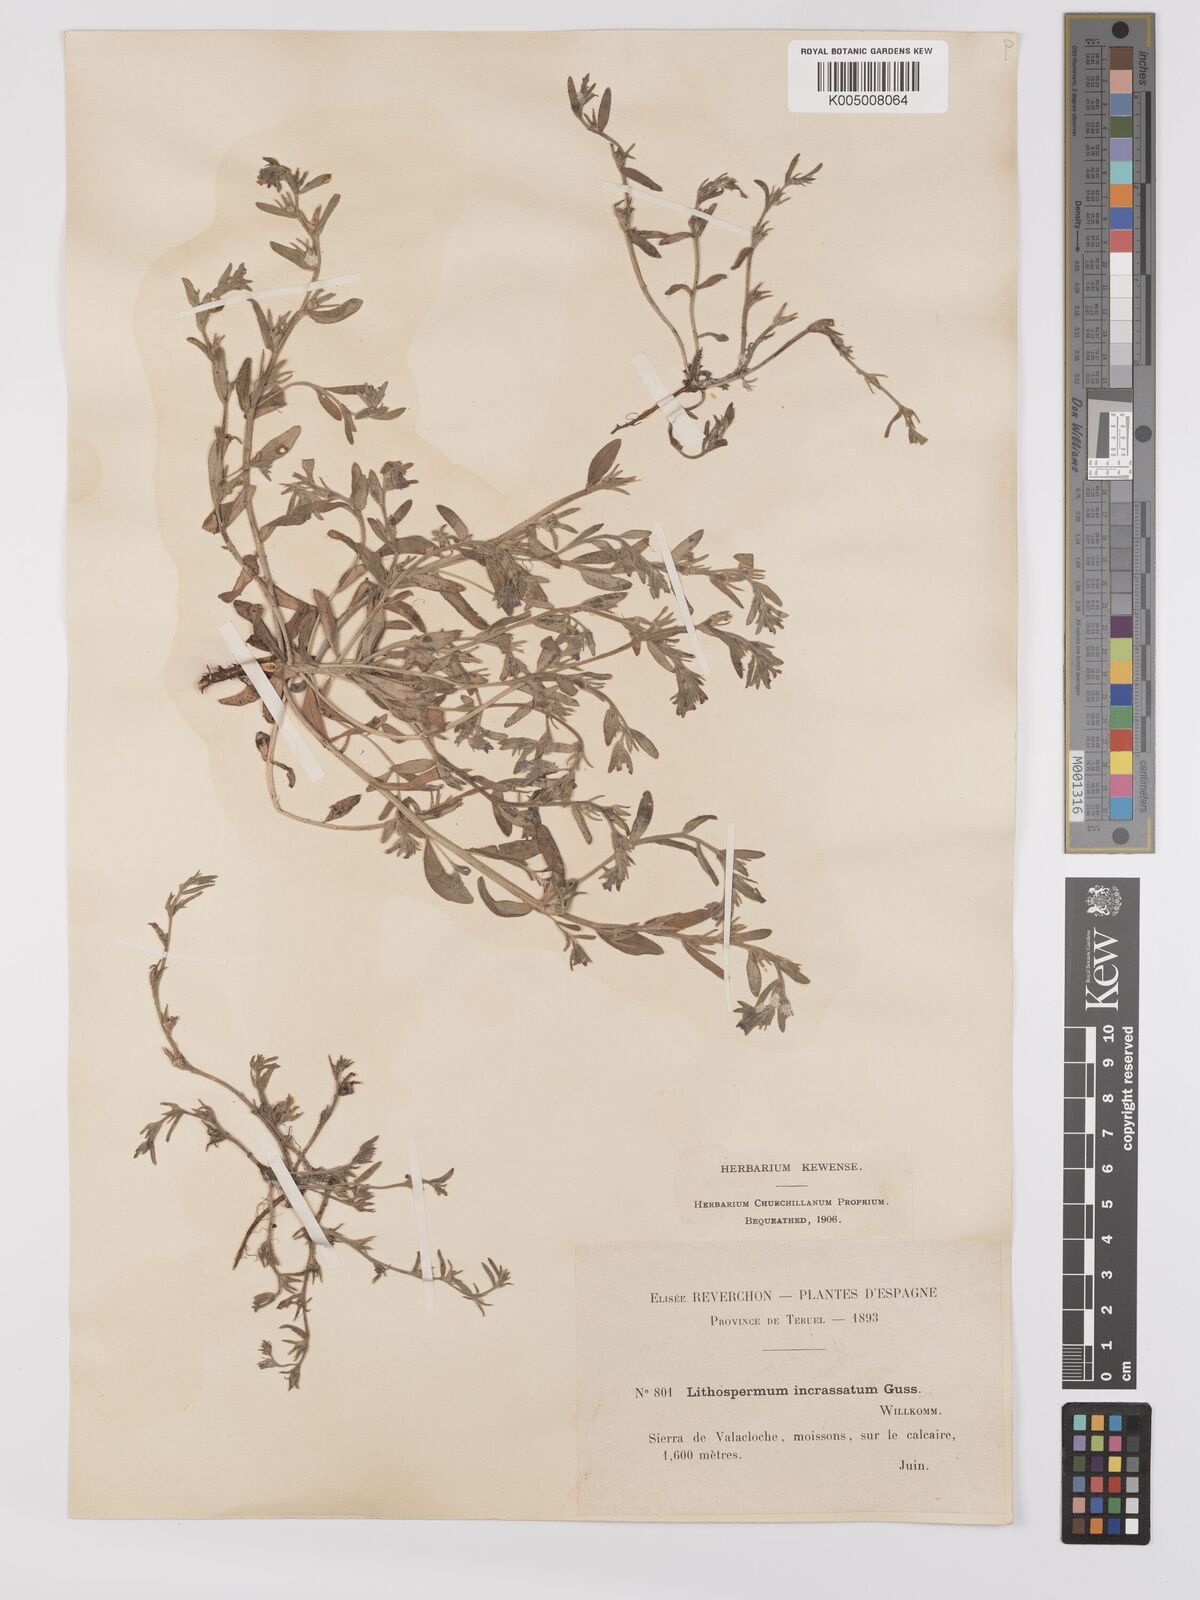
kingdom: Plantae
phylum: Tracheophyta
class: Magnoliopsida
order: Boraginales
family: Boraginaceae
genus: Buglossoides
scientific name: Buglossoides incrassata
